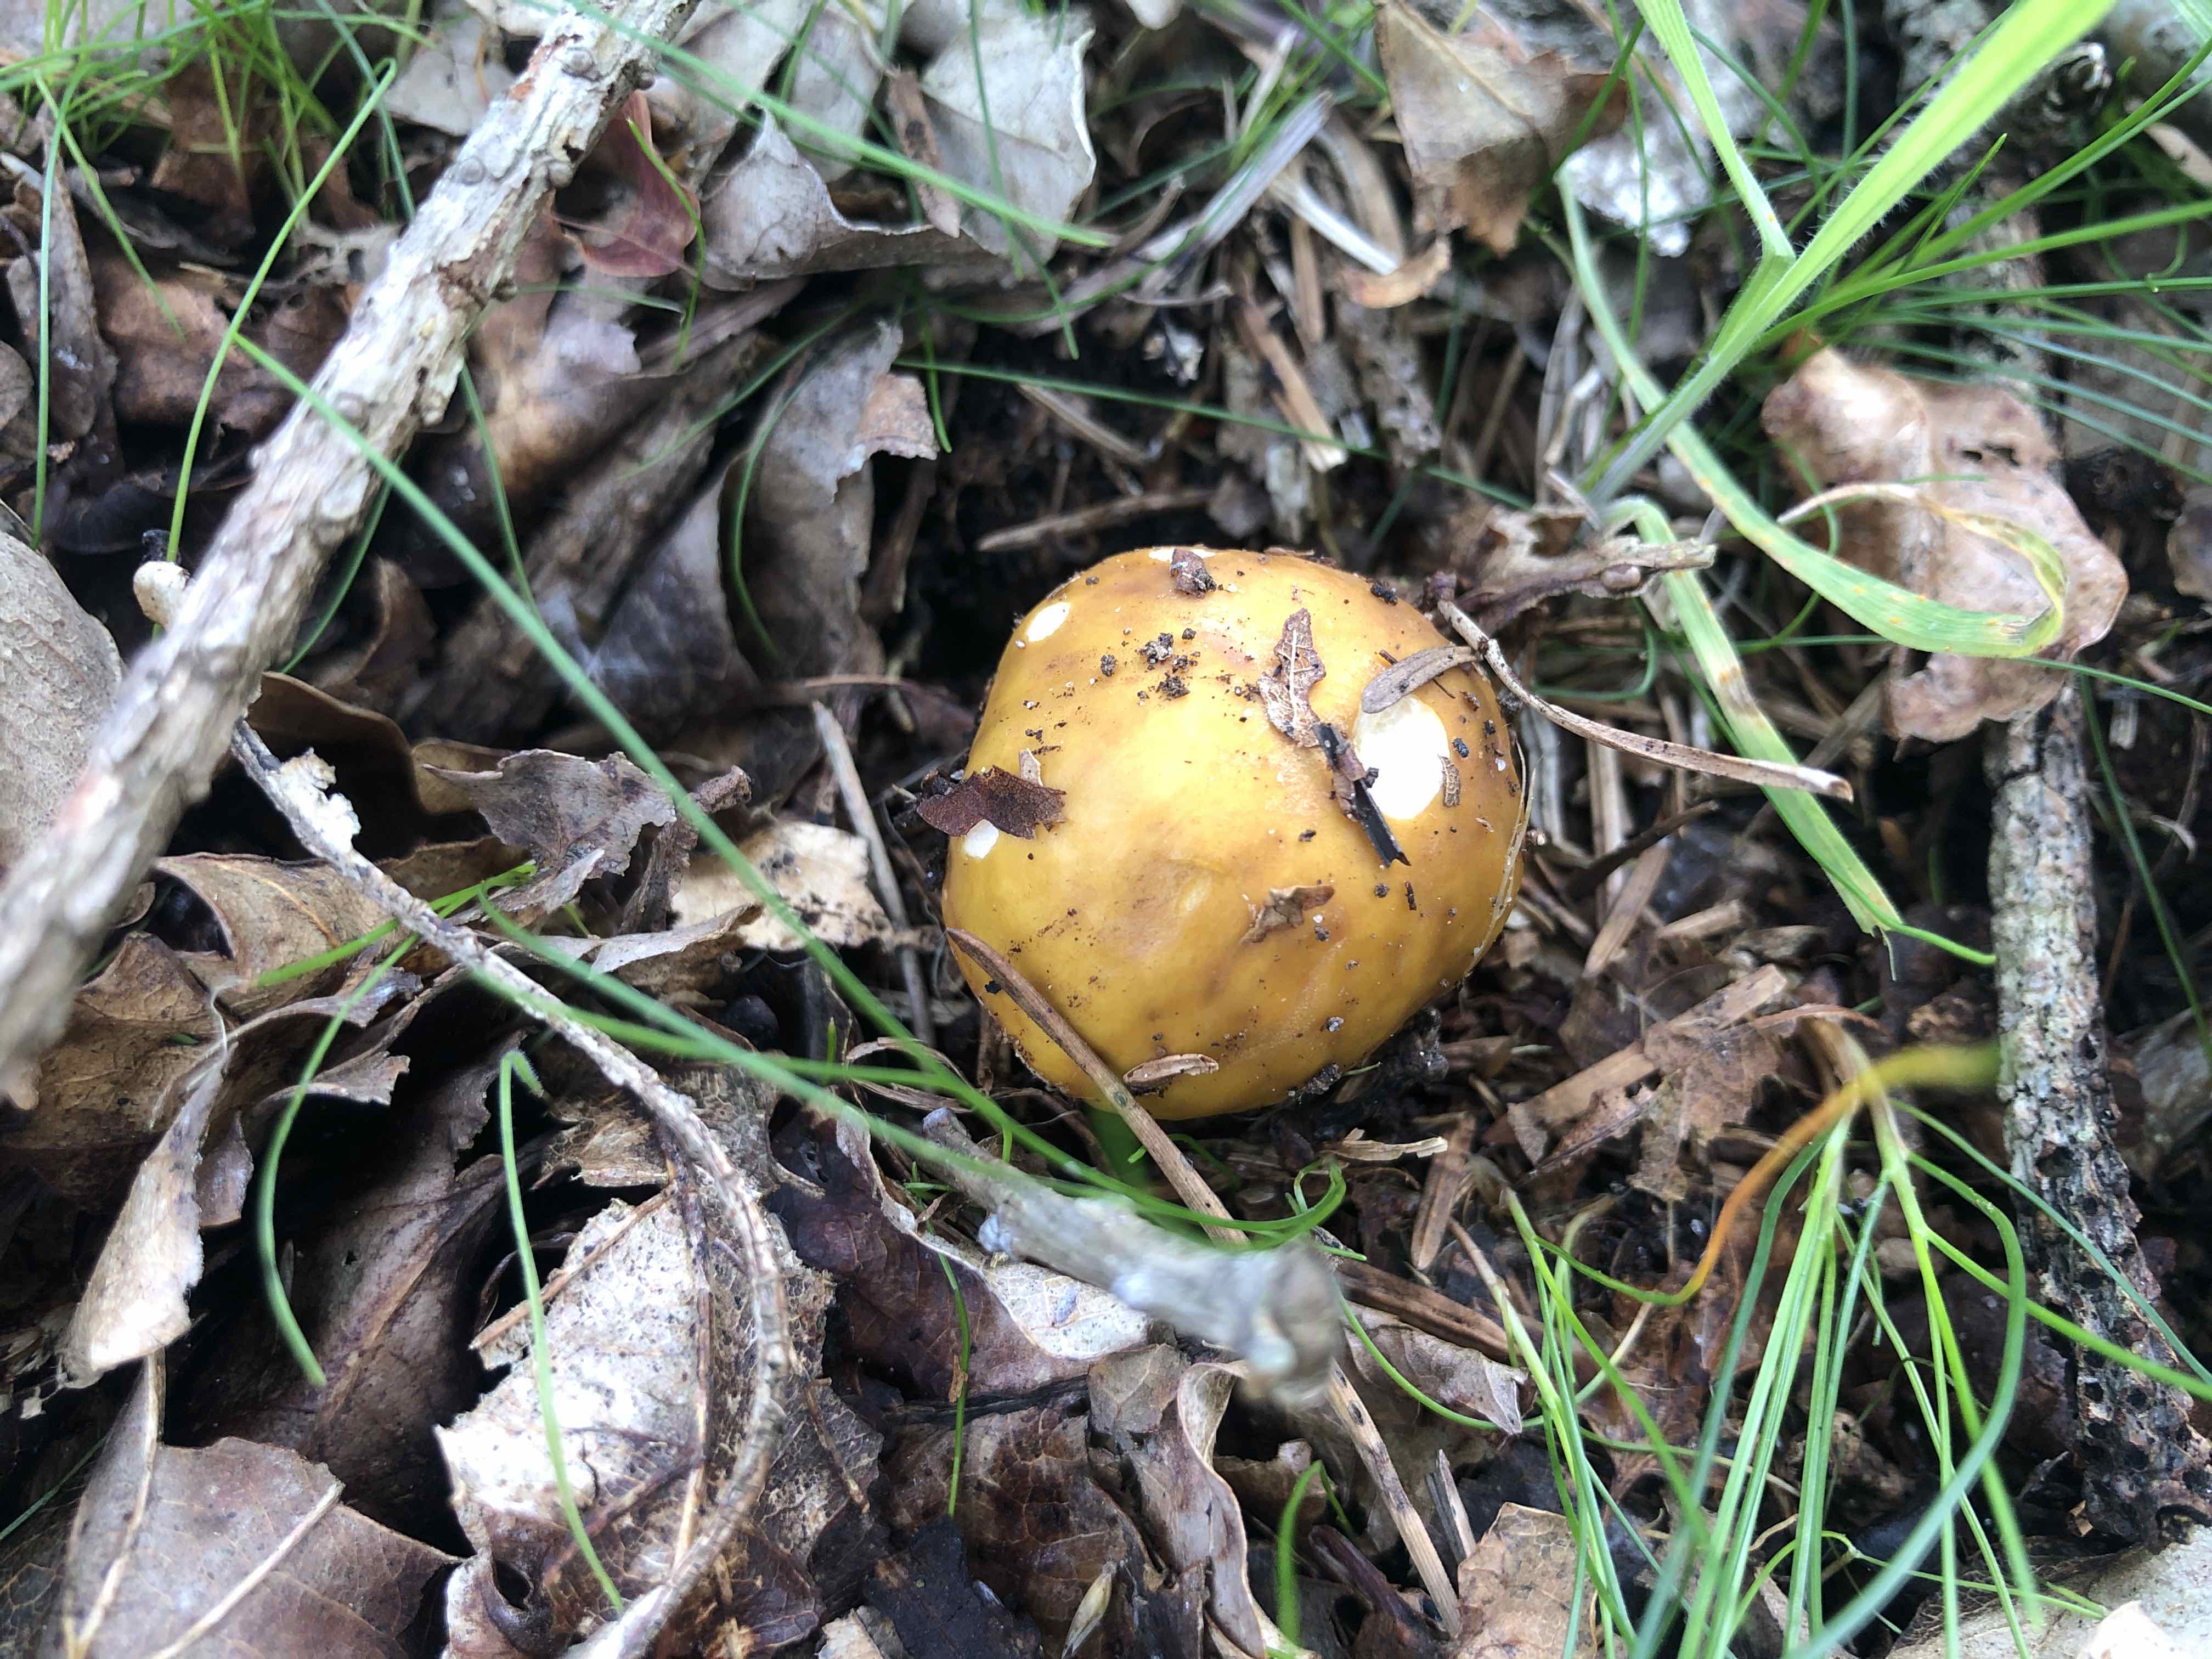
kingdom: Fungi
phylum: Basidiomycota
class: Agaricomycetes
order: Russulales
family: Russulaceae
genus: Russula
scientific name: Russula ochroleuca
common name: okkergul skørhat
